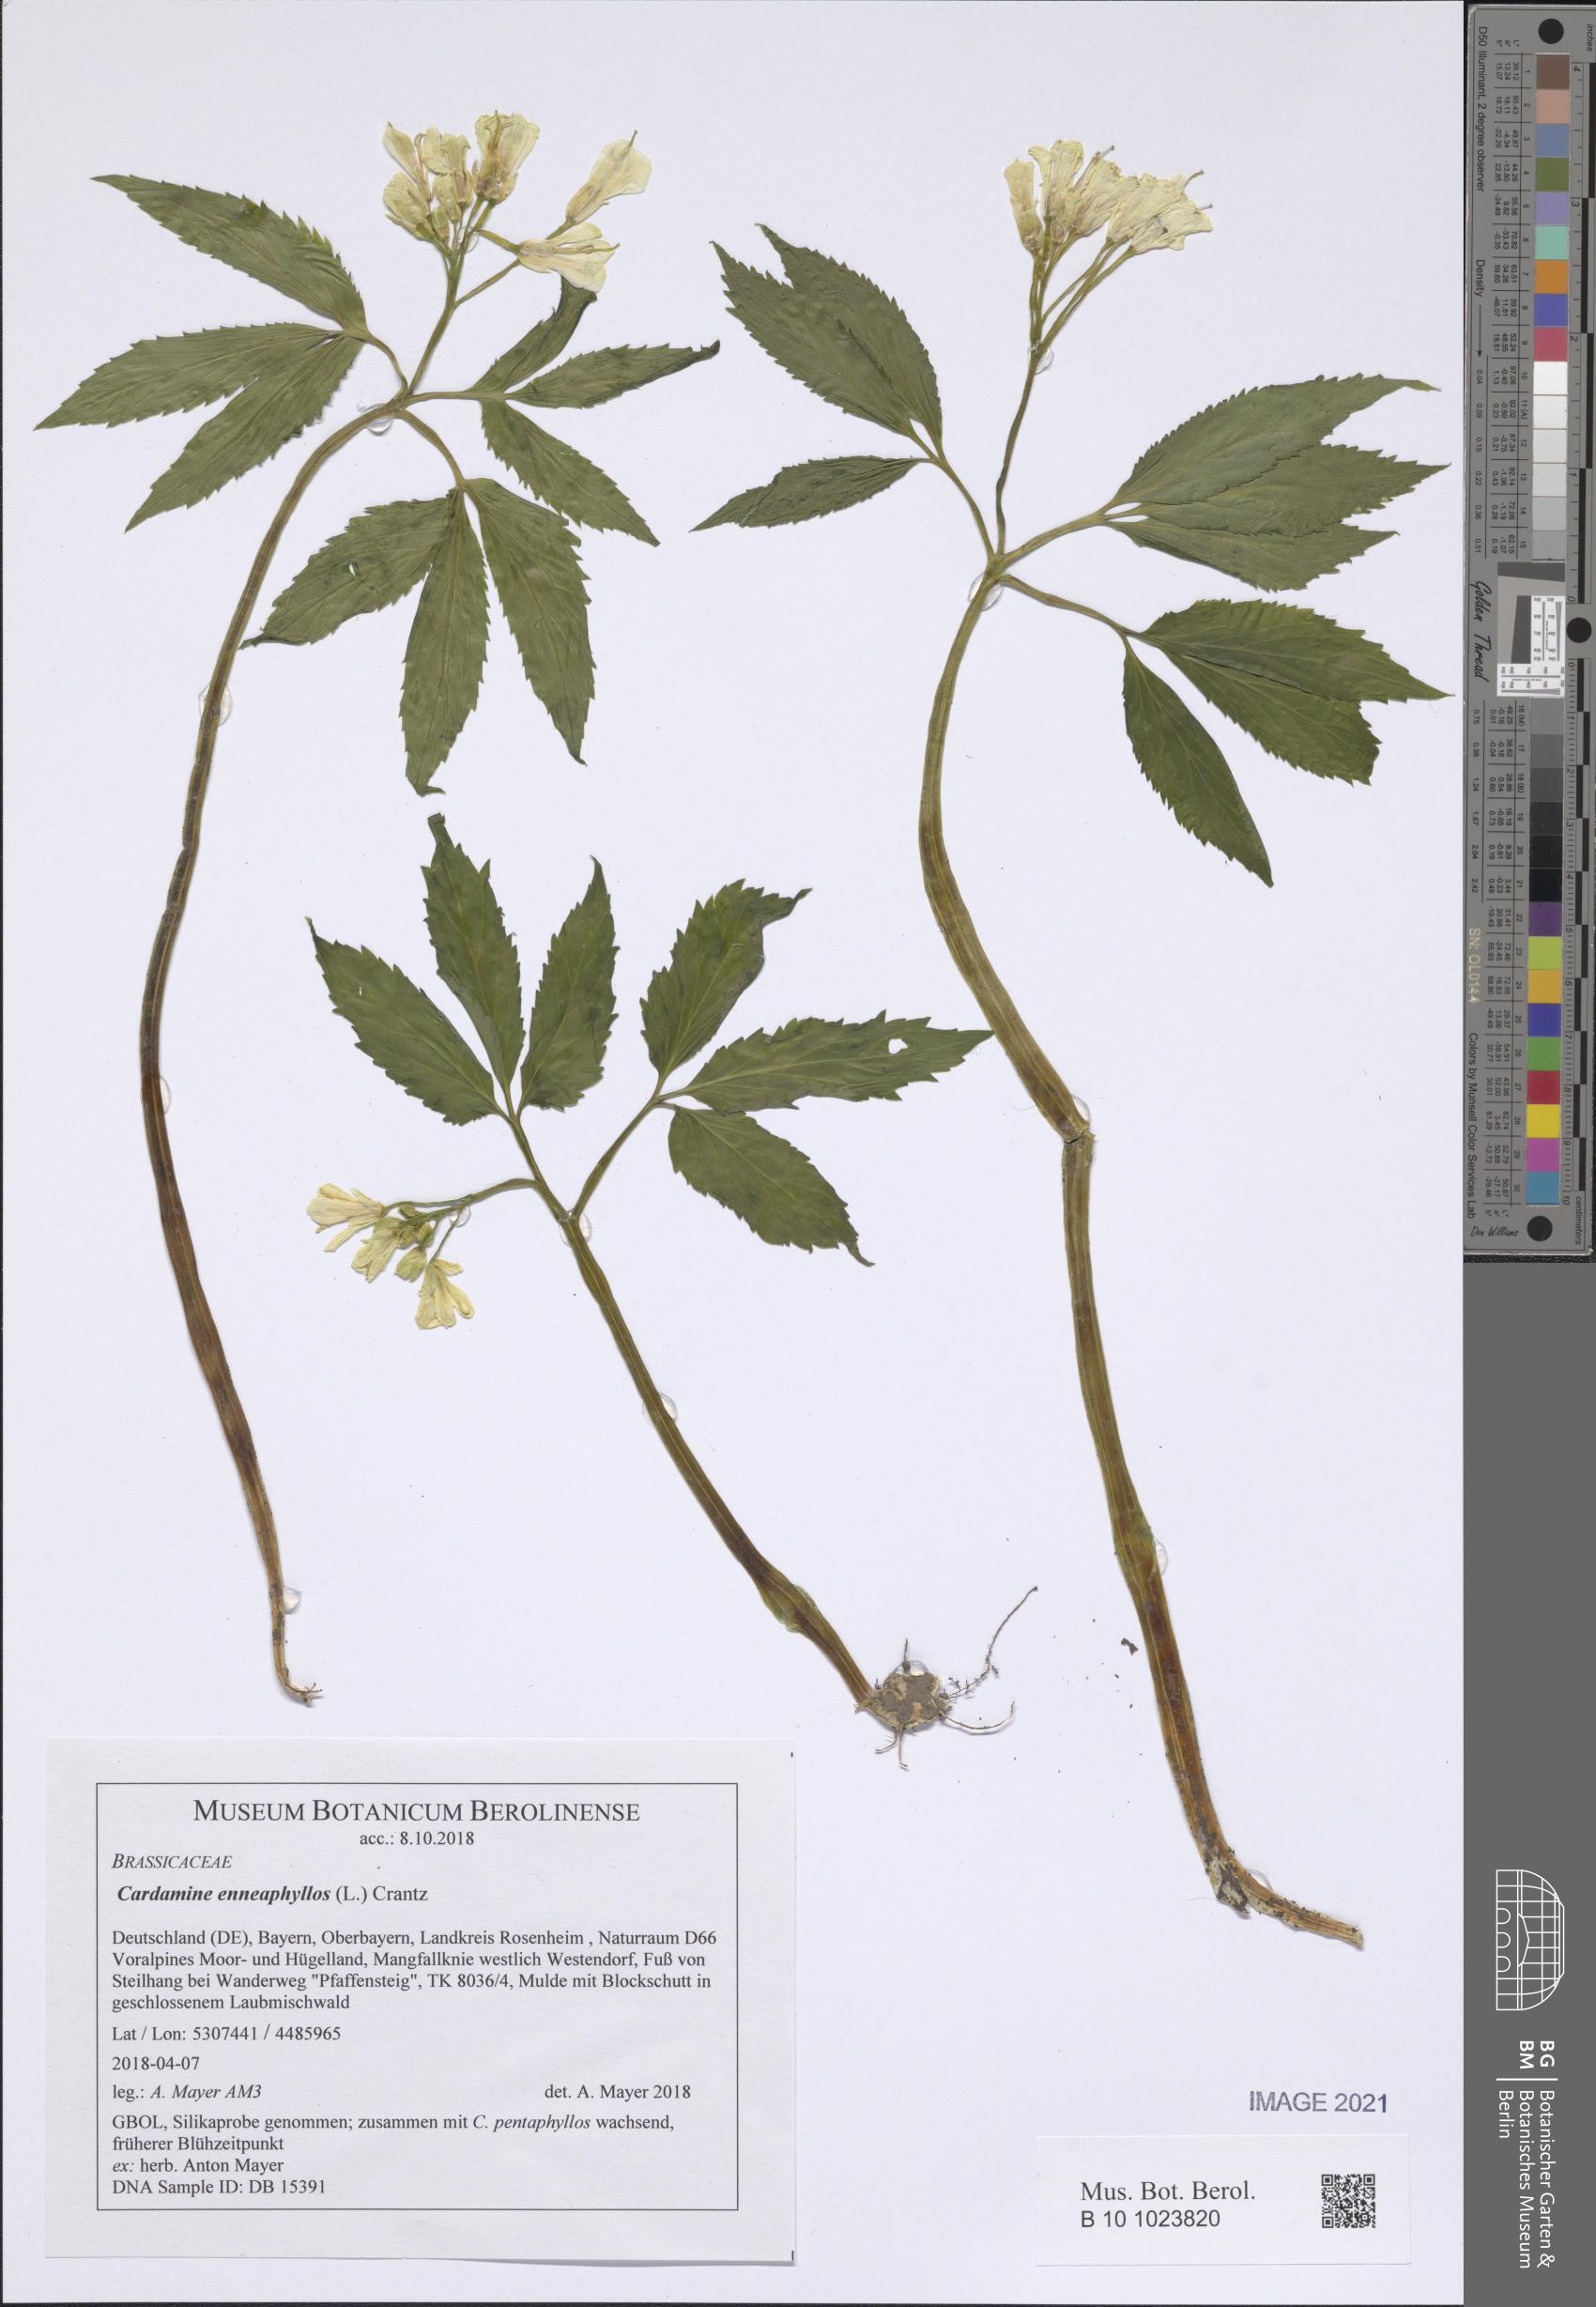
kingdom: Plantae
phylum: Tracheophyta
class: Magnoliopsida
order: Brassicales
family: Brassicaceae
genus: Cardamine
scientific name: Cardamine enneaphyllos
